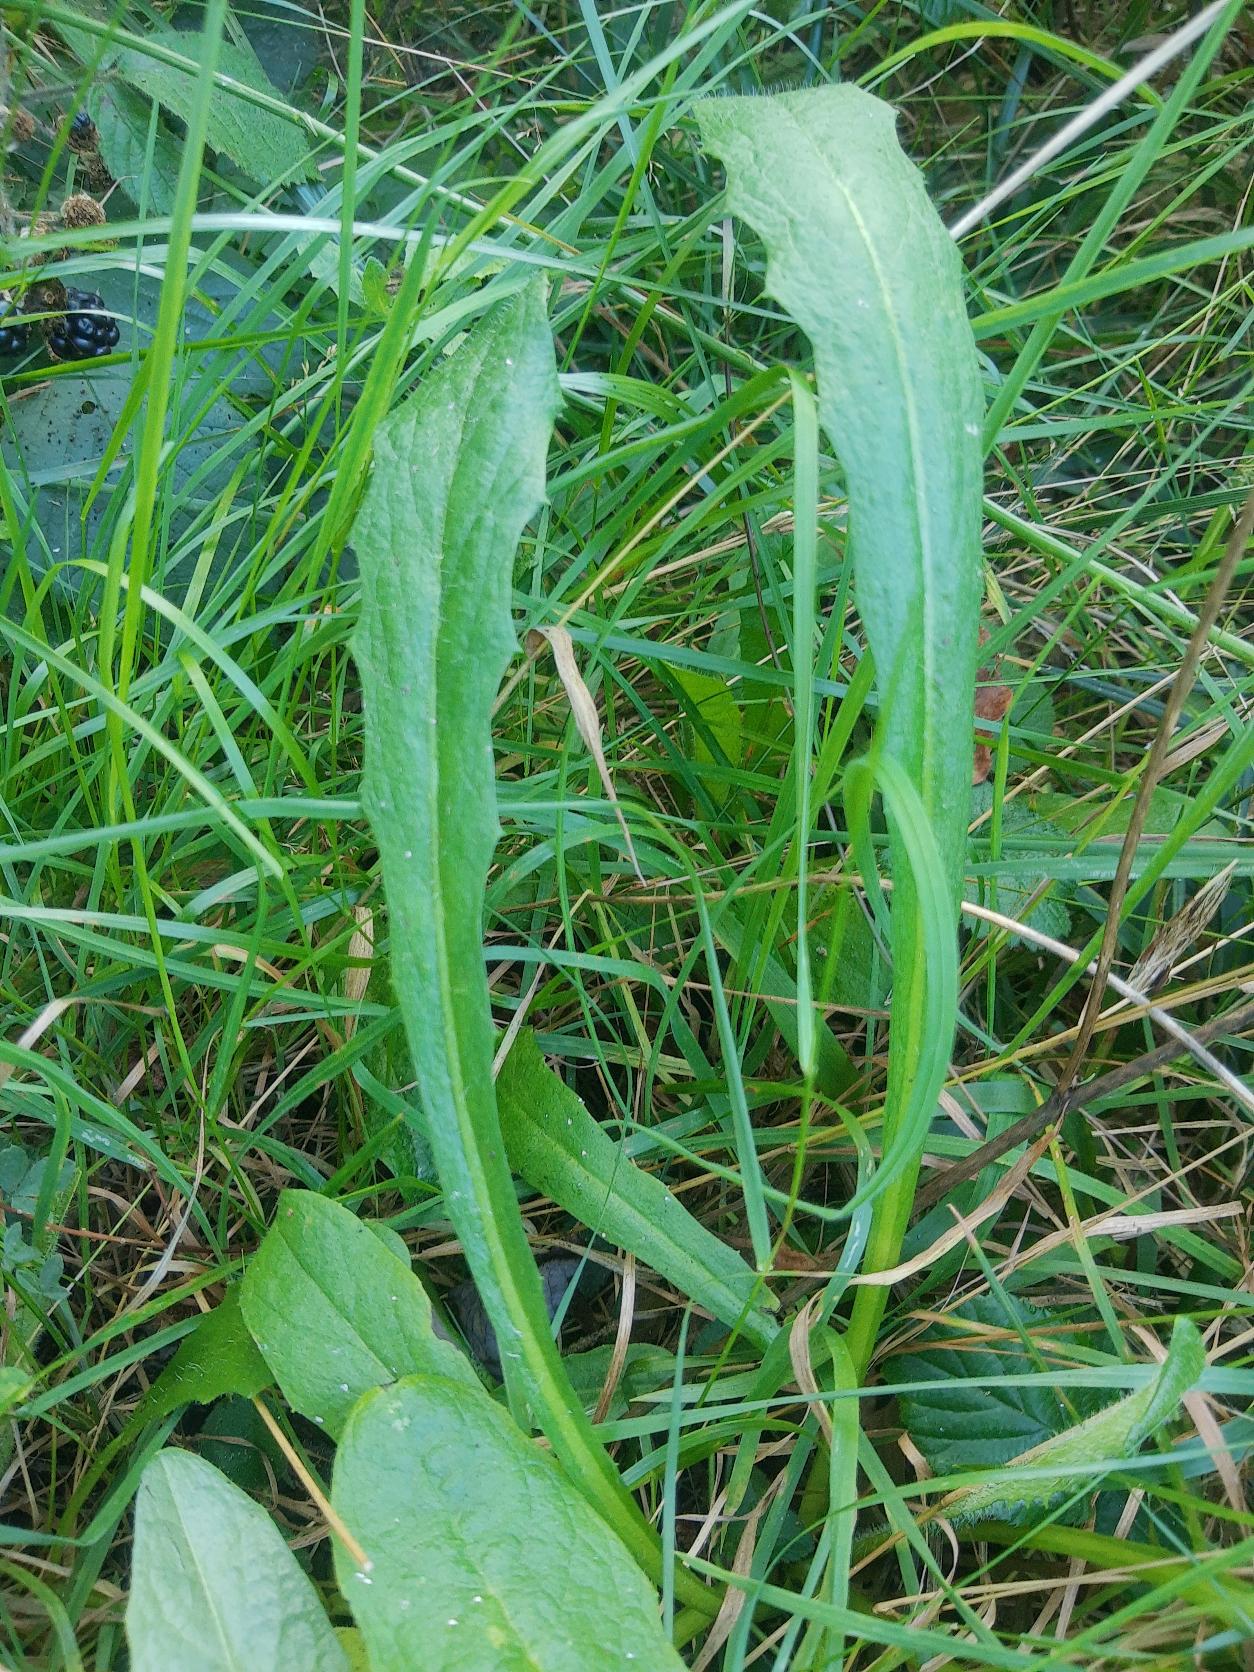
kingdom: Plantae
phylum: Tracheophyta
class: Magnoliopsida
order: Asterales
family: Asteraceae
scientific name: Asteraceae
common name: Kurvblomstfamilien
